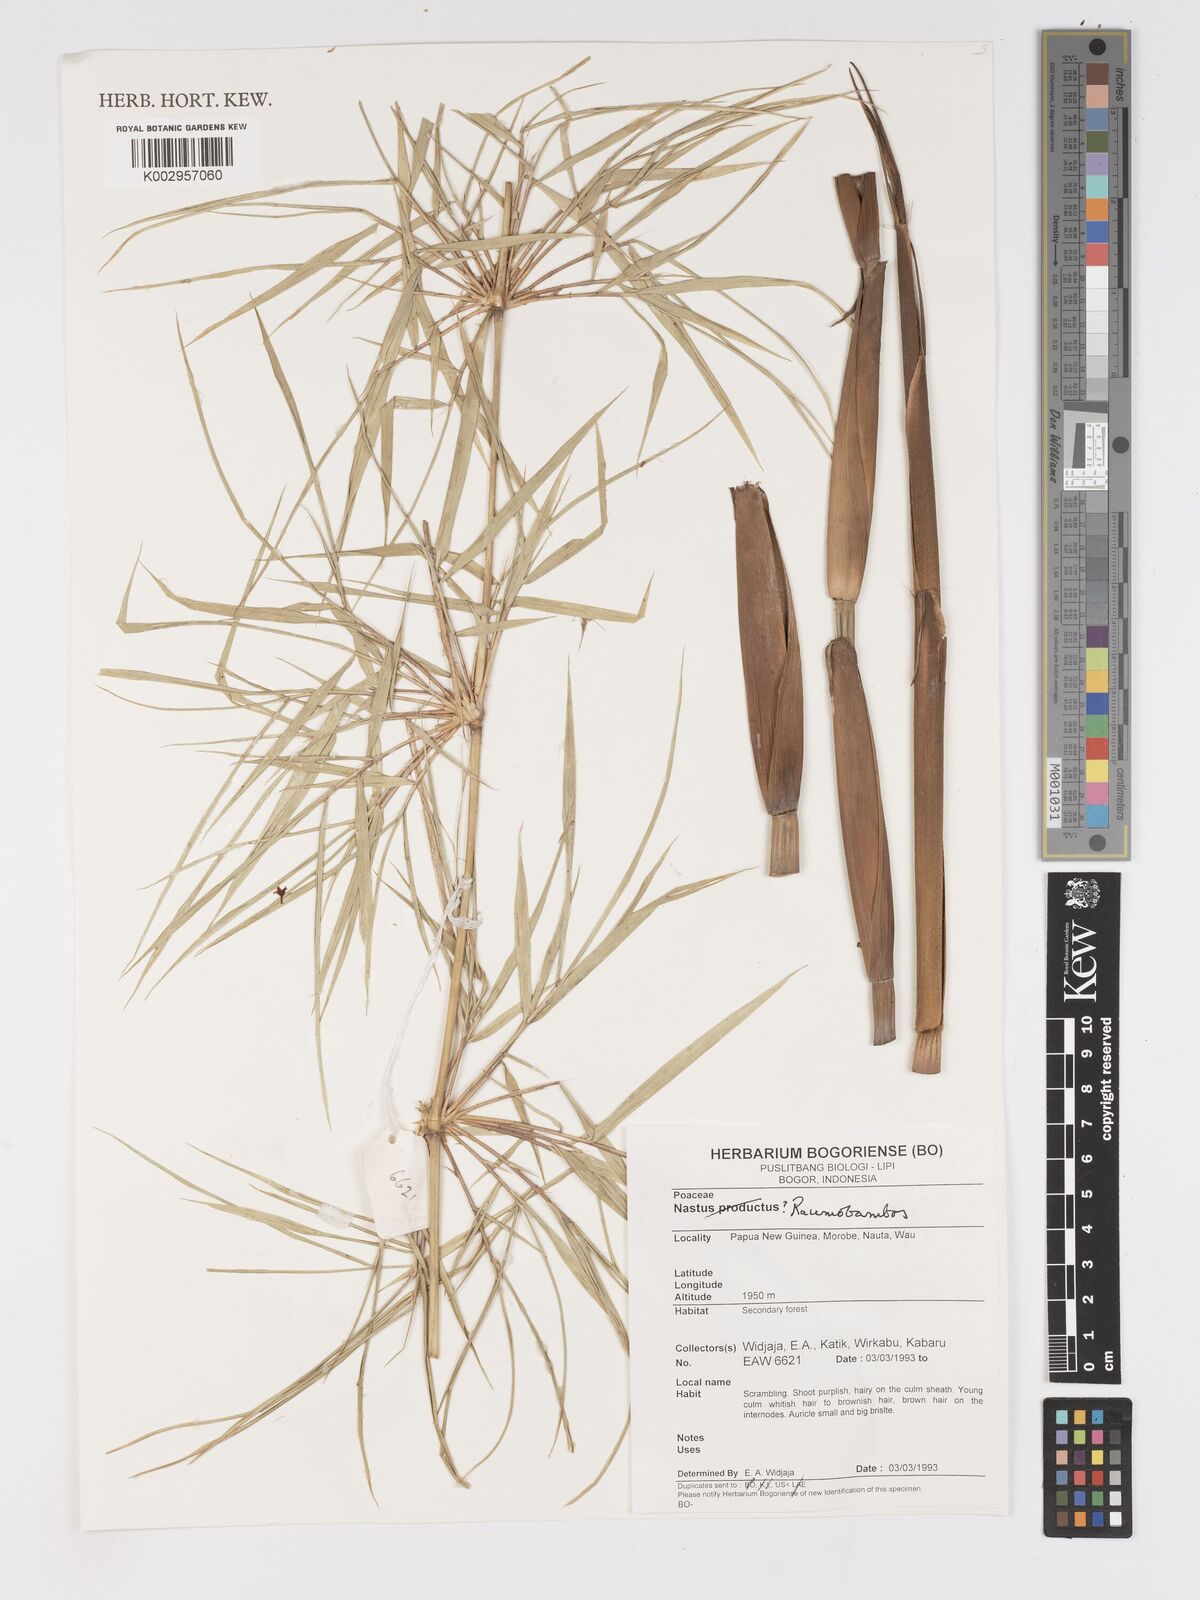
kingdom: Plantae
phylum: Tracheophyta
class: Liliopsida
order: Poales
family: Poaceae
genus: Racemobambos
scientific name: Racemobambos
